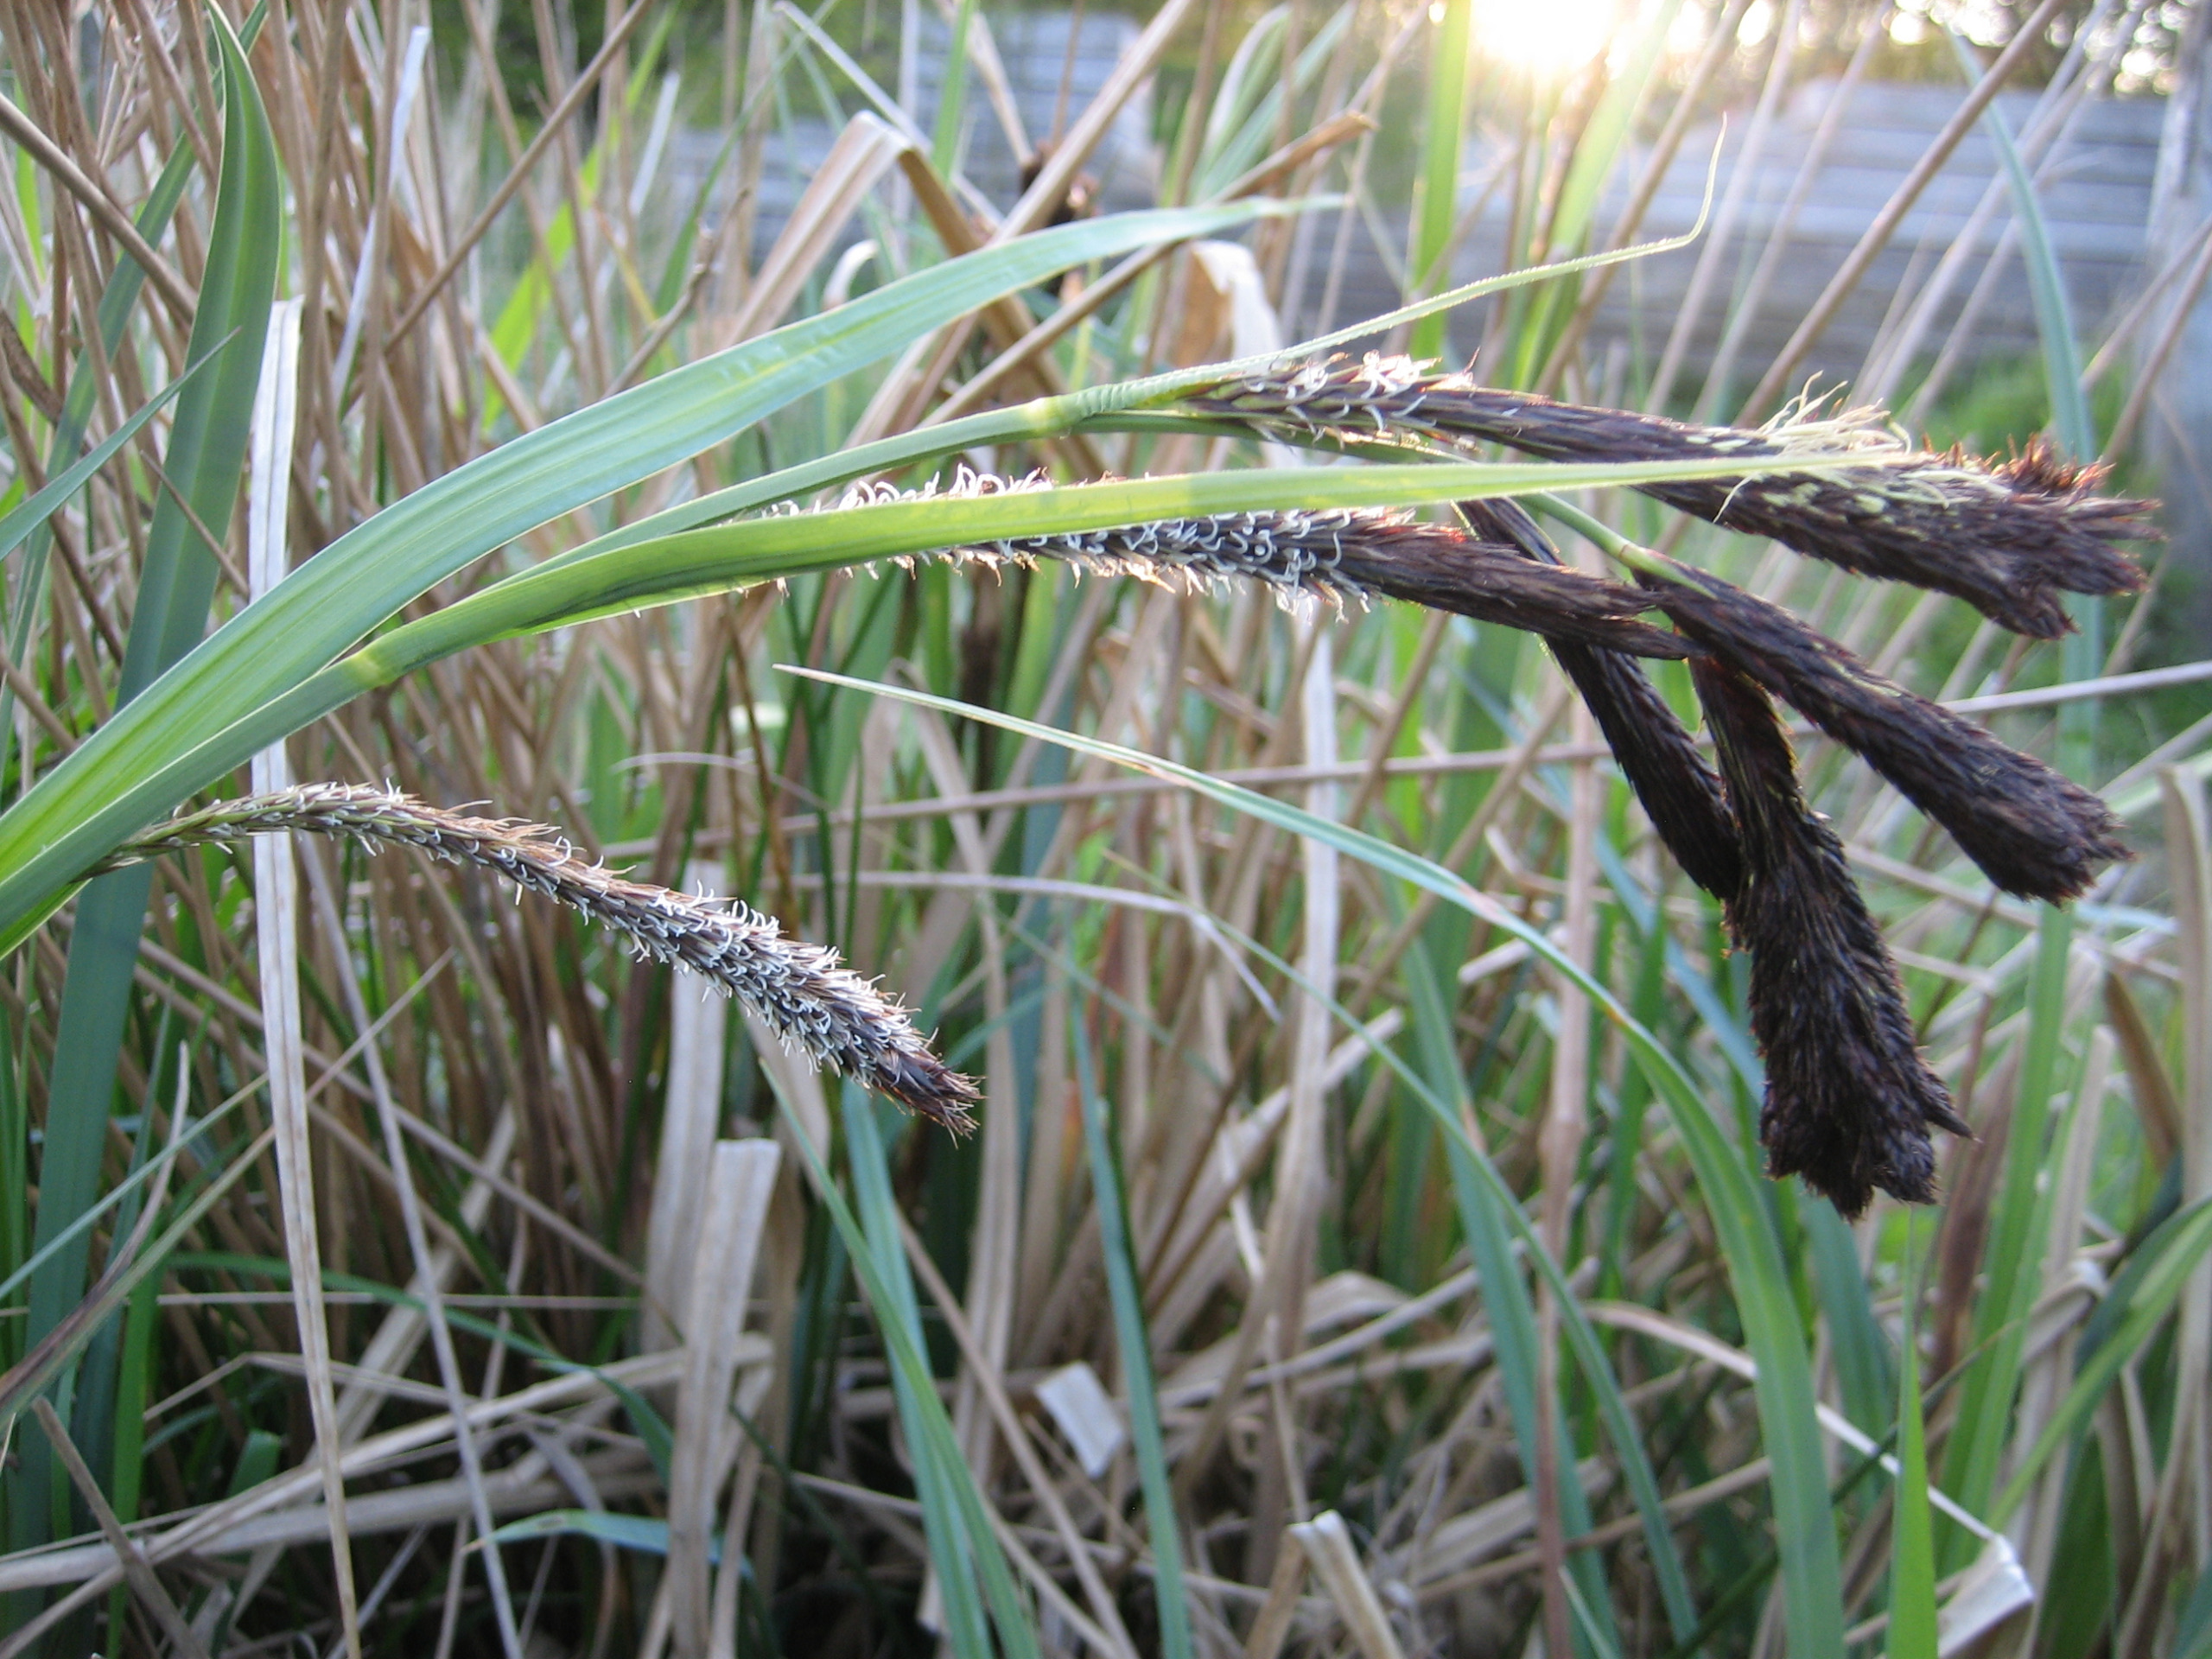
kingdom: Plantae
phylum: Tracheophyta
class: Liliopsida
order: Poales
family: Cyperaceae
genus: Carex
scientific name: Carex riparia
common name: Tykakset star
